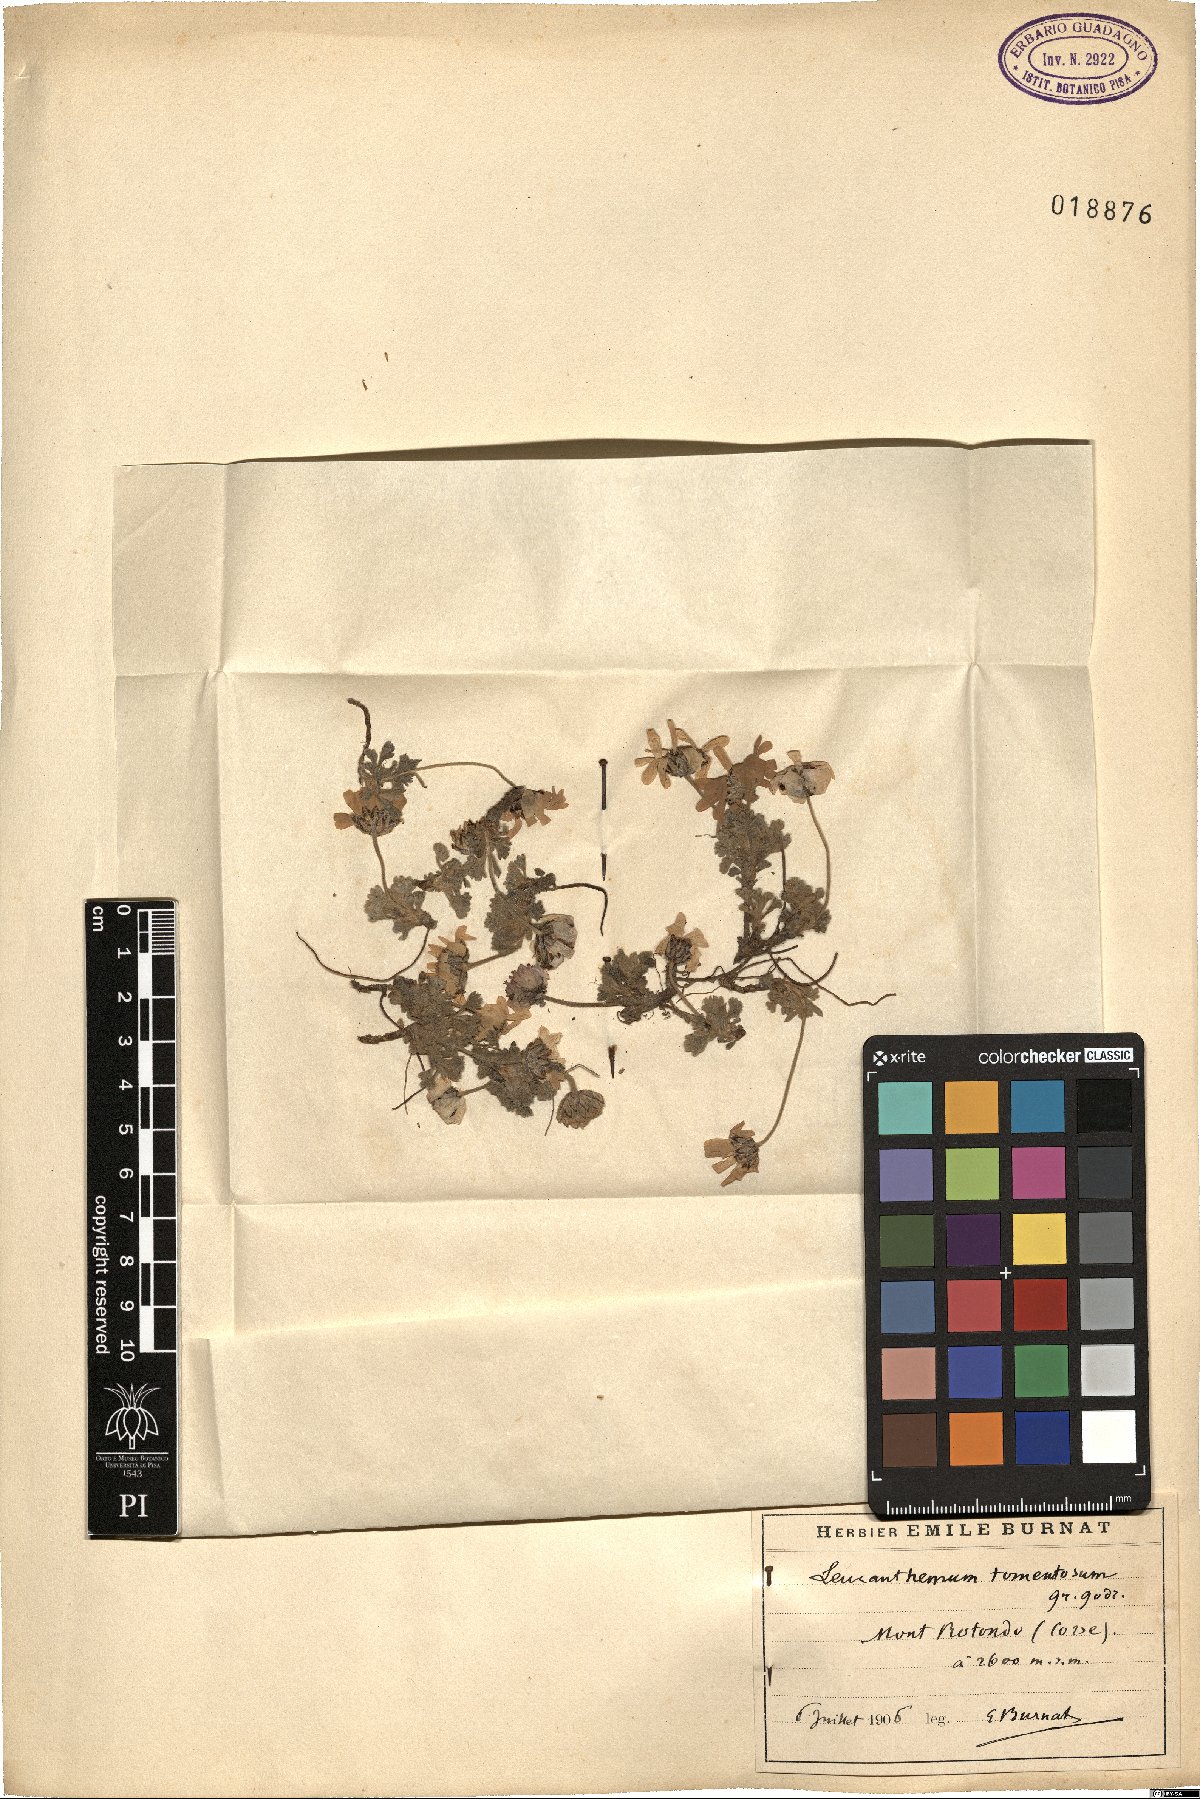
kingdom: Plantae
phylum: Tracheophyta
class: Magnoliopsida
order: Asterales
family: Asteraceae
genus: Leucanthemopsis
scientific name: Leucanthemopsis alpina
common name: Alpine moon daisy
